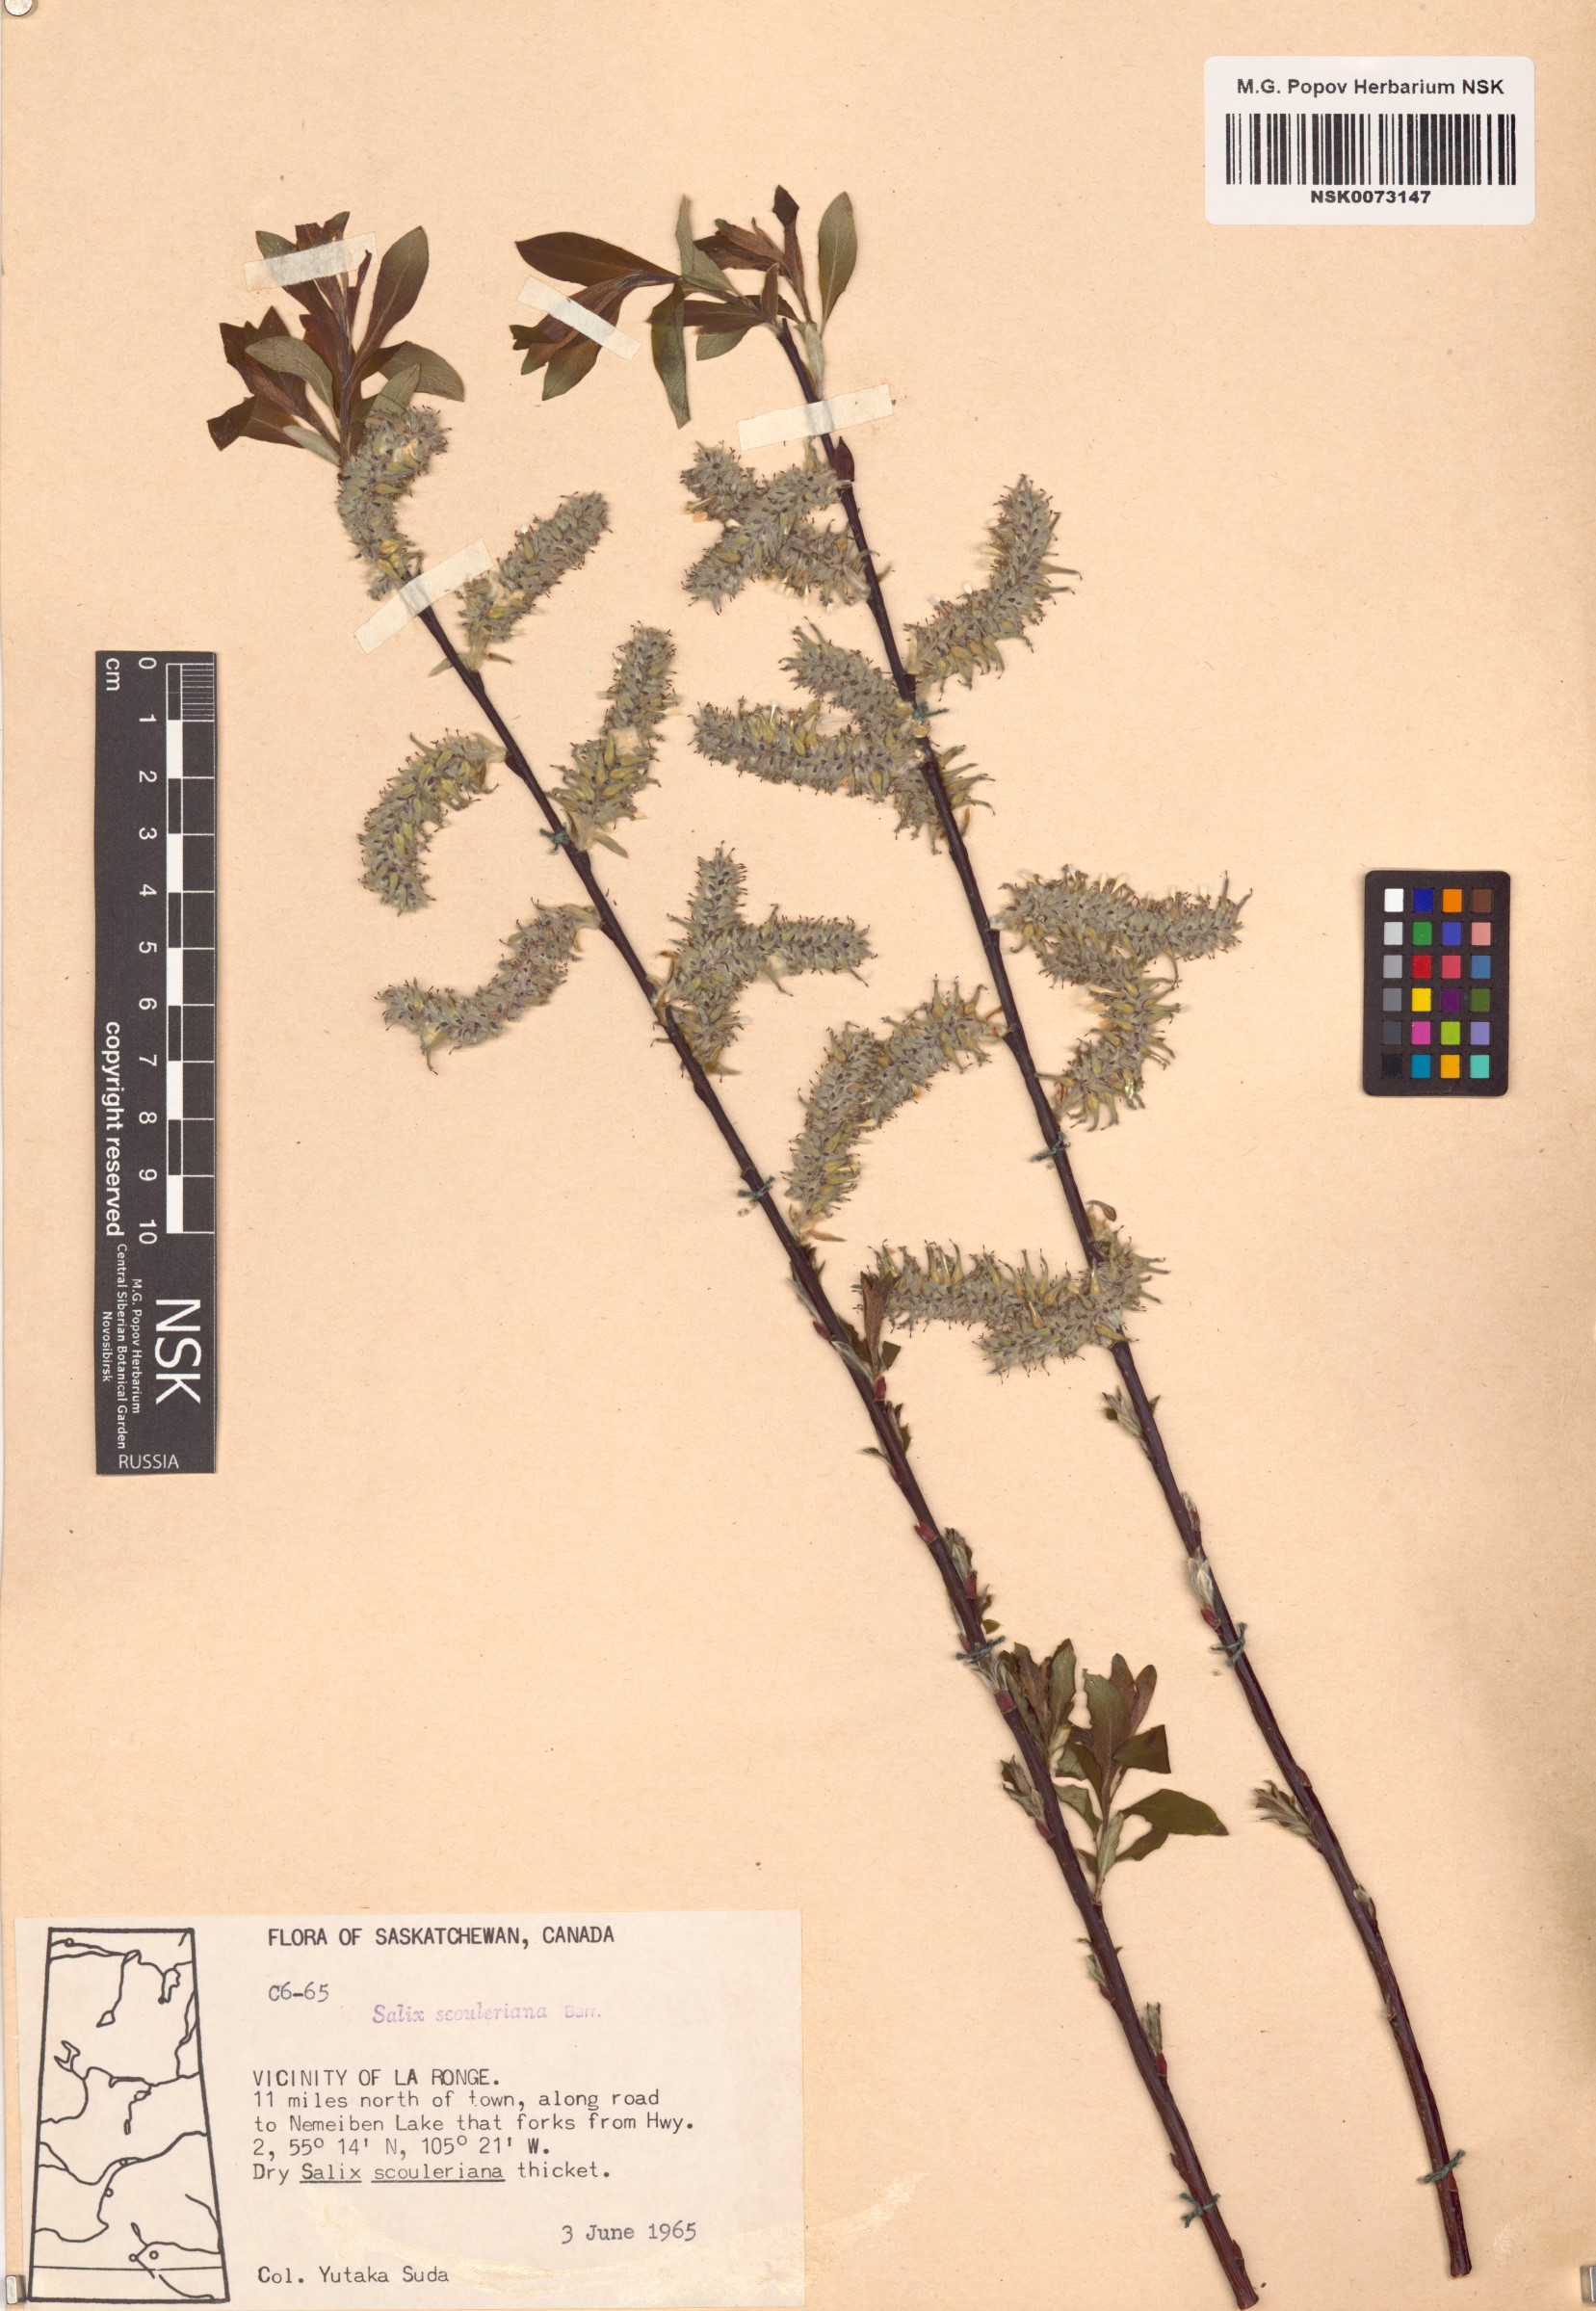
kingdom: Plantae
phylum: Tracheophyta
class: Magnoliopsida
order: Malpighiales
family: Salicaceae
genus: Salix
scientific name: Salix scouleriana
